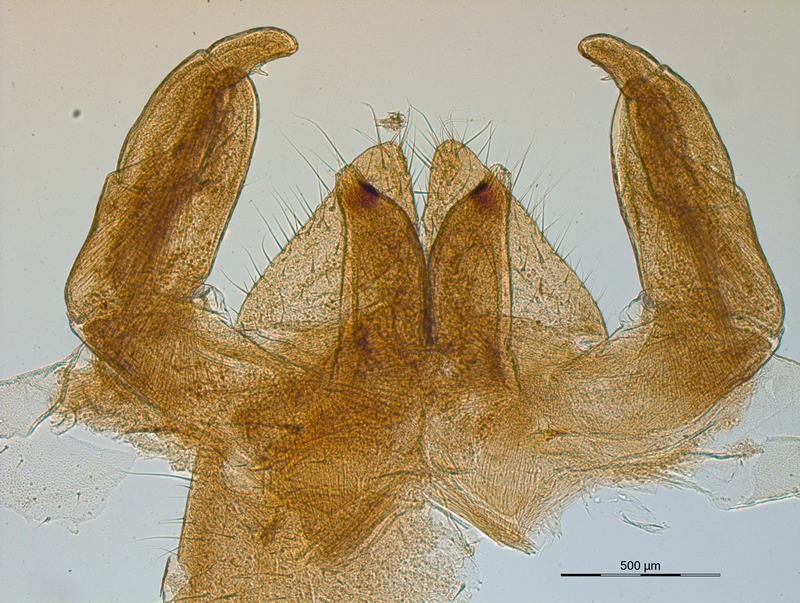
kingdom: Animalia
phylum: Arthropoda
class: Diplopoda
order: Sphaerotheriida
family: Zephroniidae
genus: Prionobelum
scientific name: Prionobelum durum
